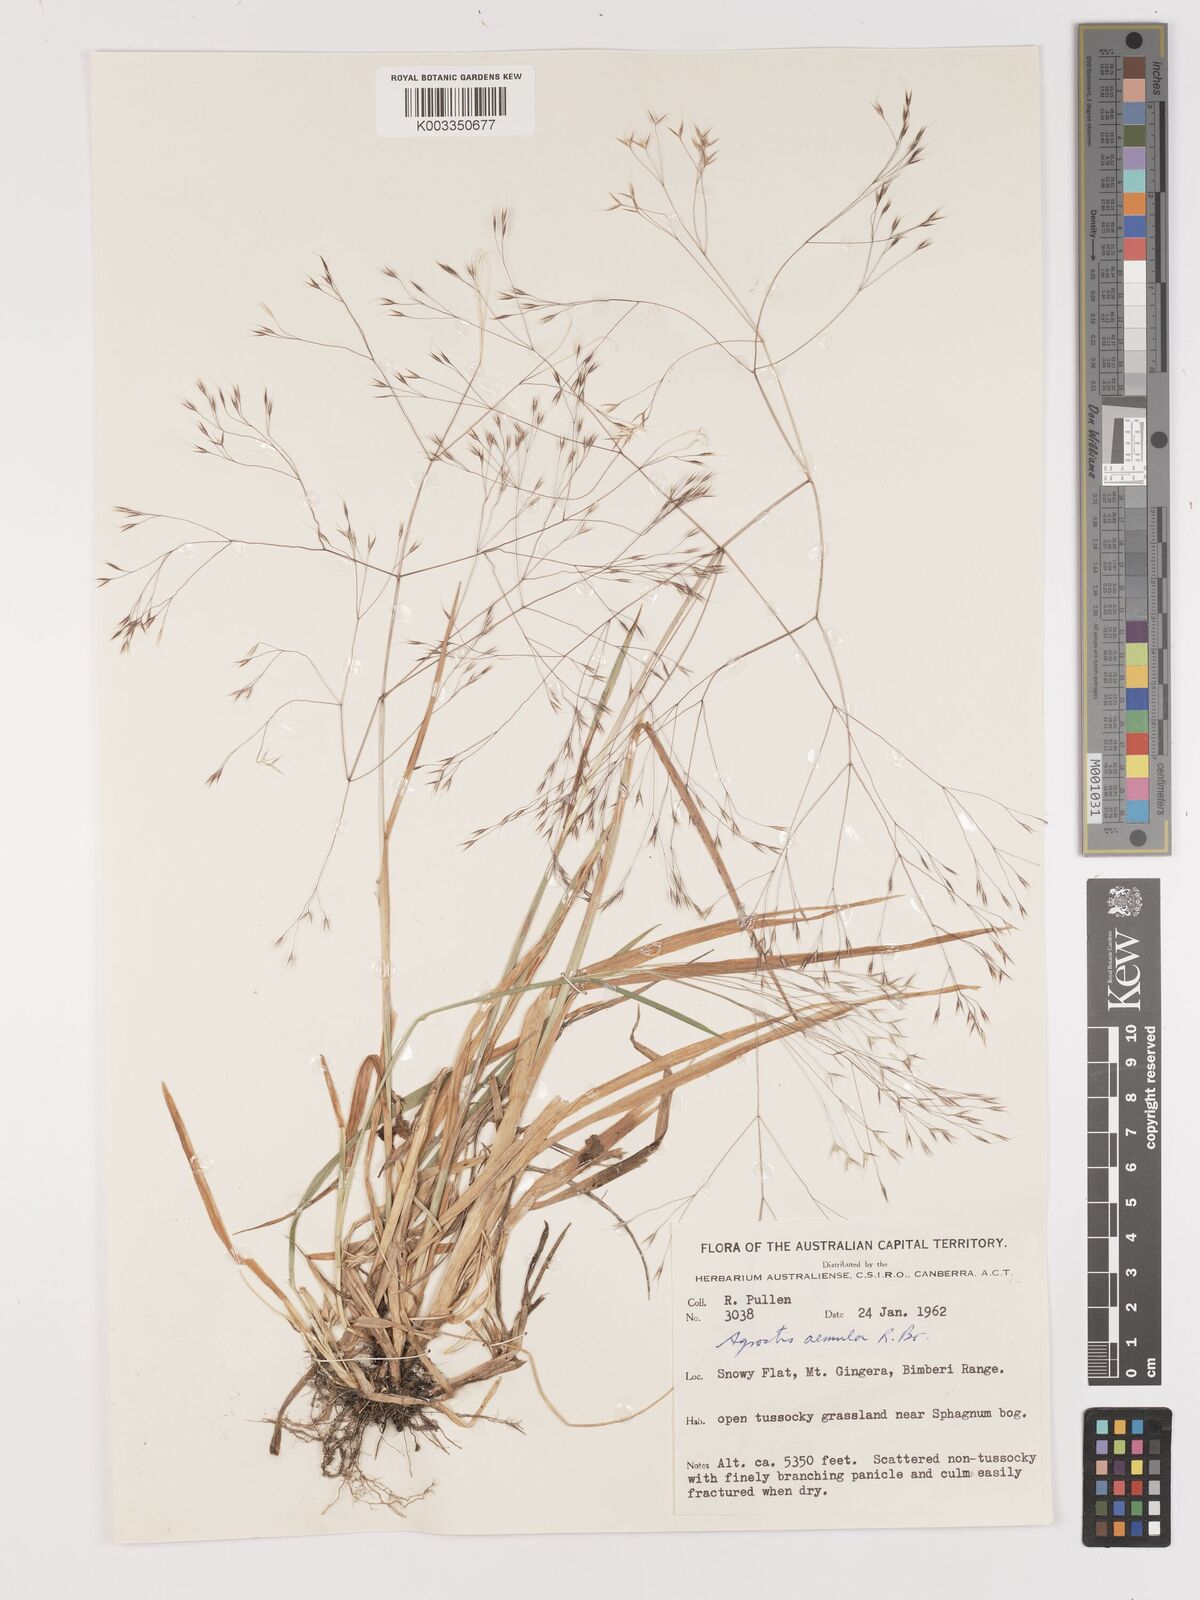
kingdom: Plantae
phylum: Tracheophyta
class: Liliopsida
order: Poales
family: Poaceae
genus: Lachnagrostis
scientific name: Lachnagrostis aemula
